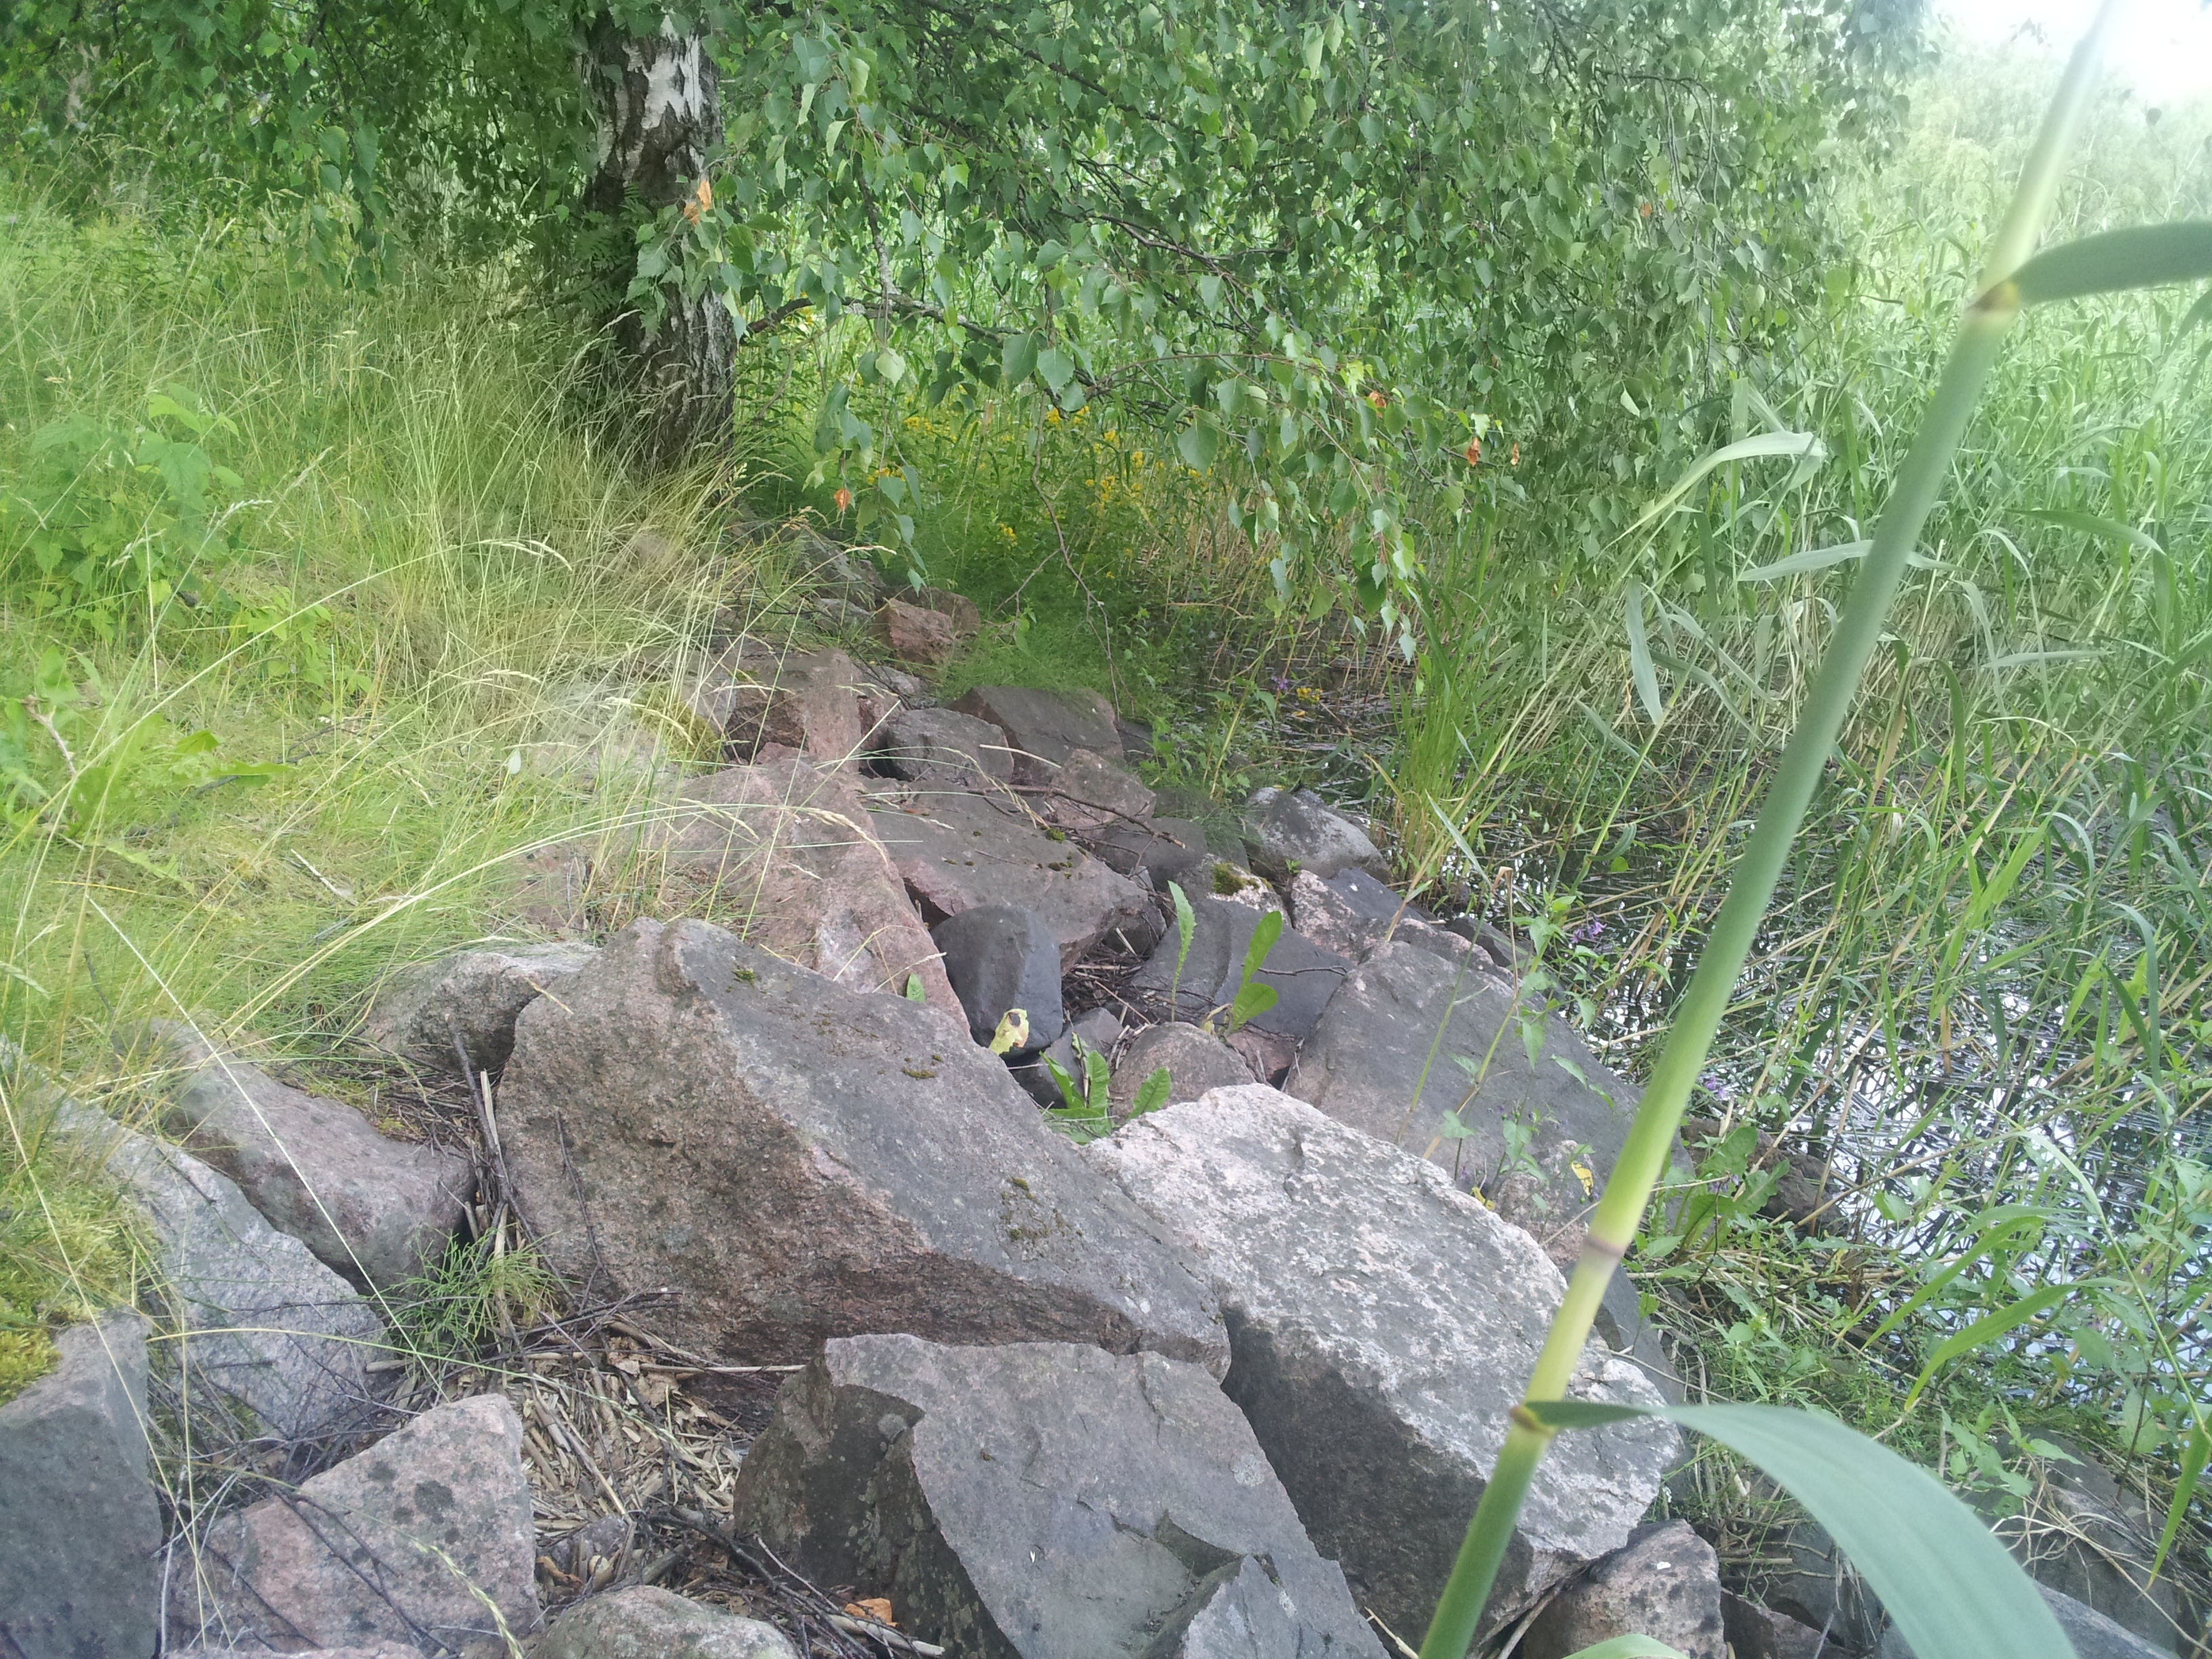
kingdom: Plantae
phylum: Tracheophyta
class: Liliopsida
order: Poales
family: Poaceae
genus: Festuca
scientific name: Festuca rubra
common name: Red fescue
